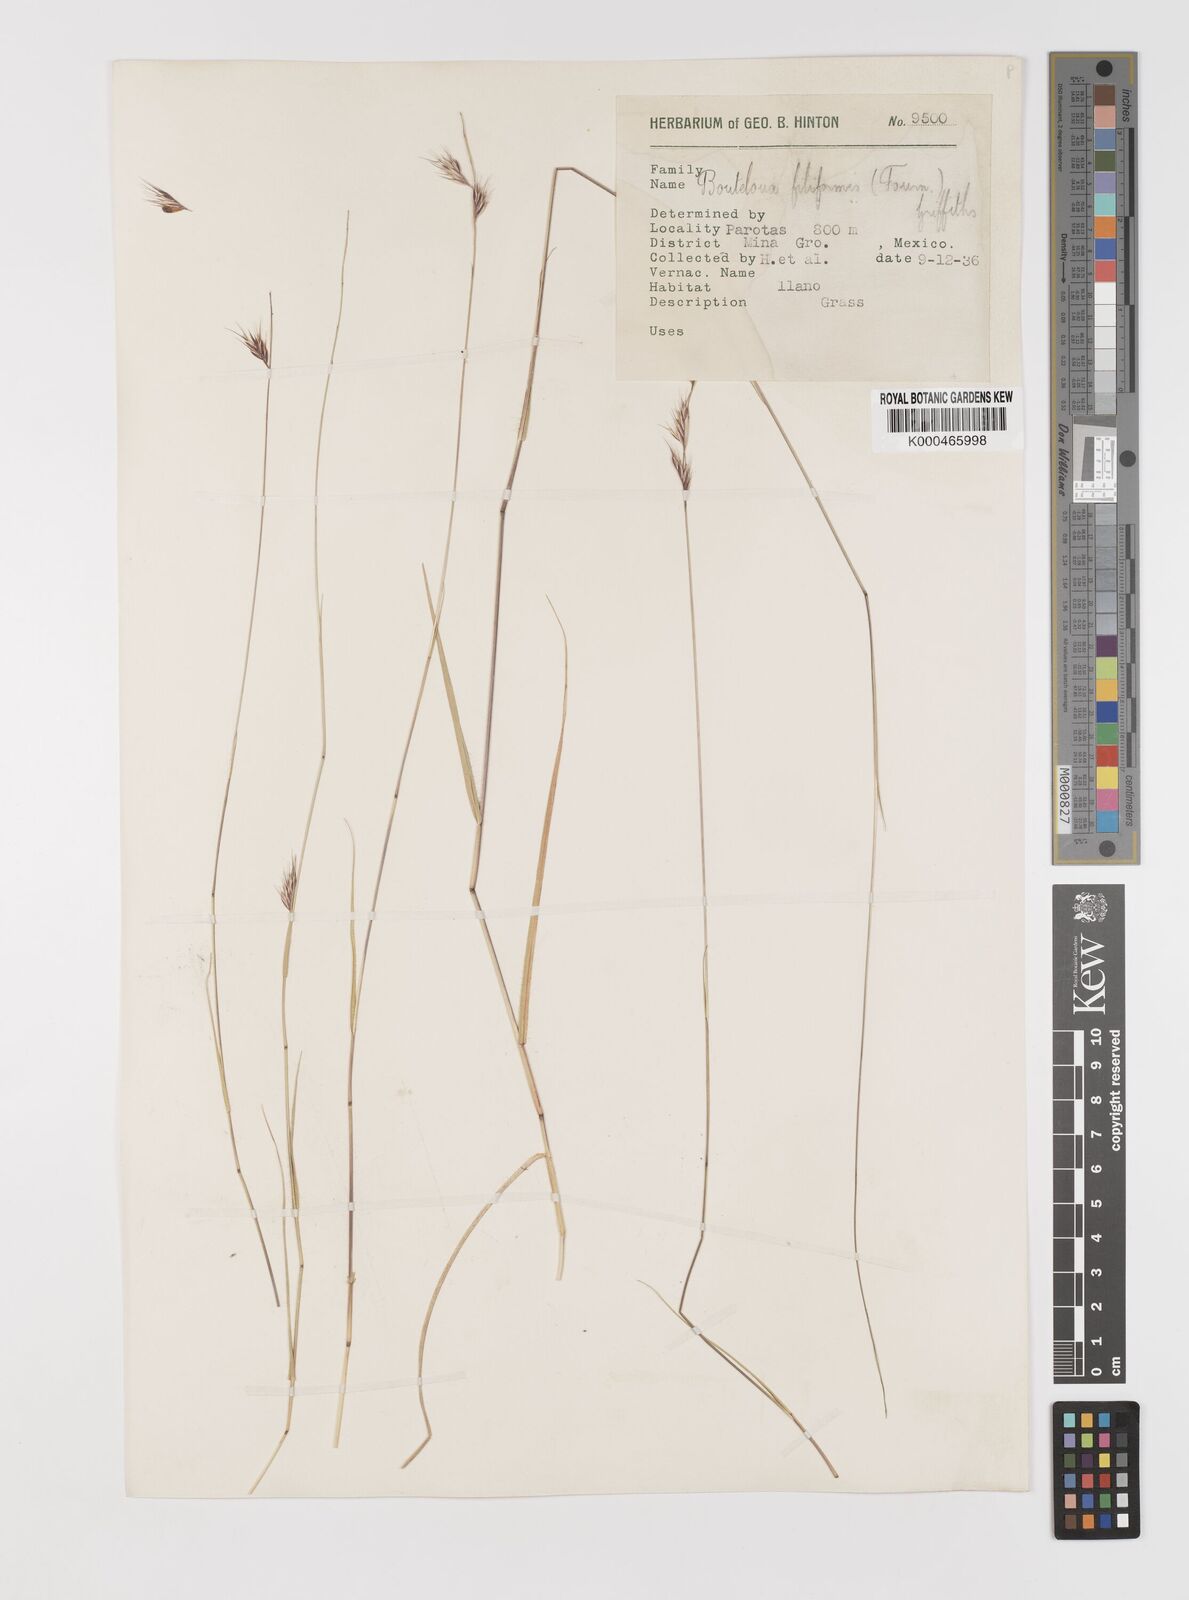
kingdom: Plantae
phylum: Tracheophyta
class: Liliopsida
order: Poales
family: Poaceae
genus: Bouteloua
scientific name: Bouteloua repens
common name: Slender grama
